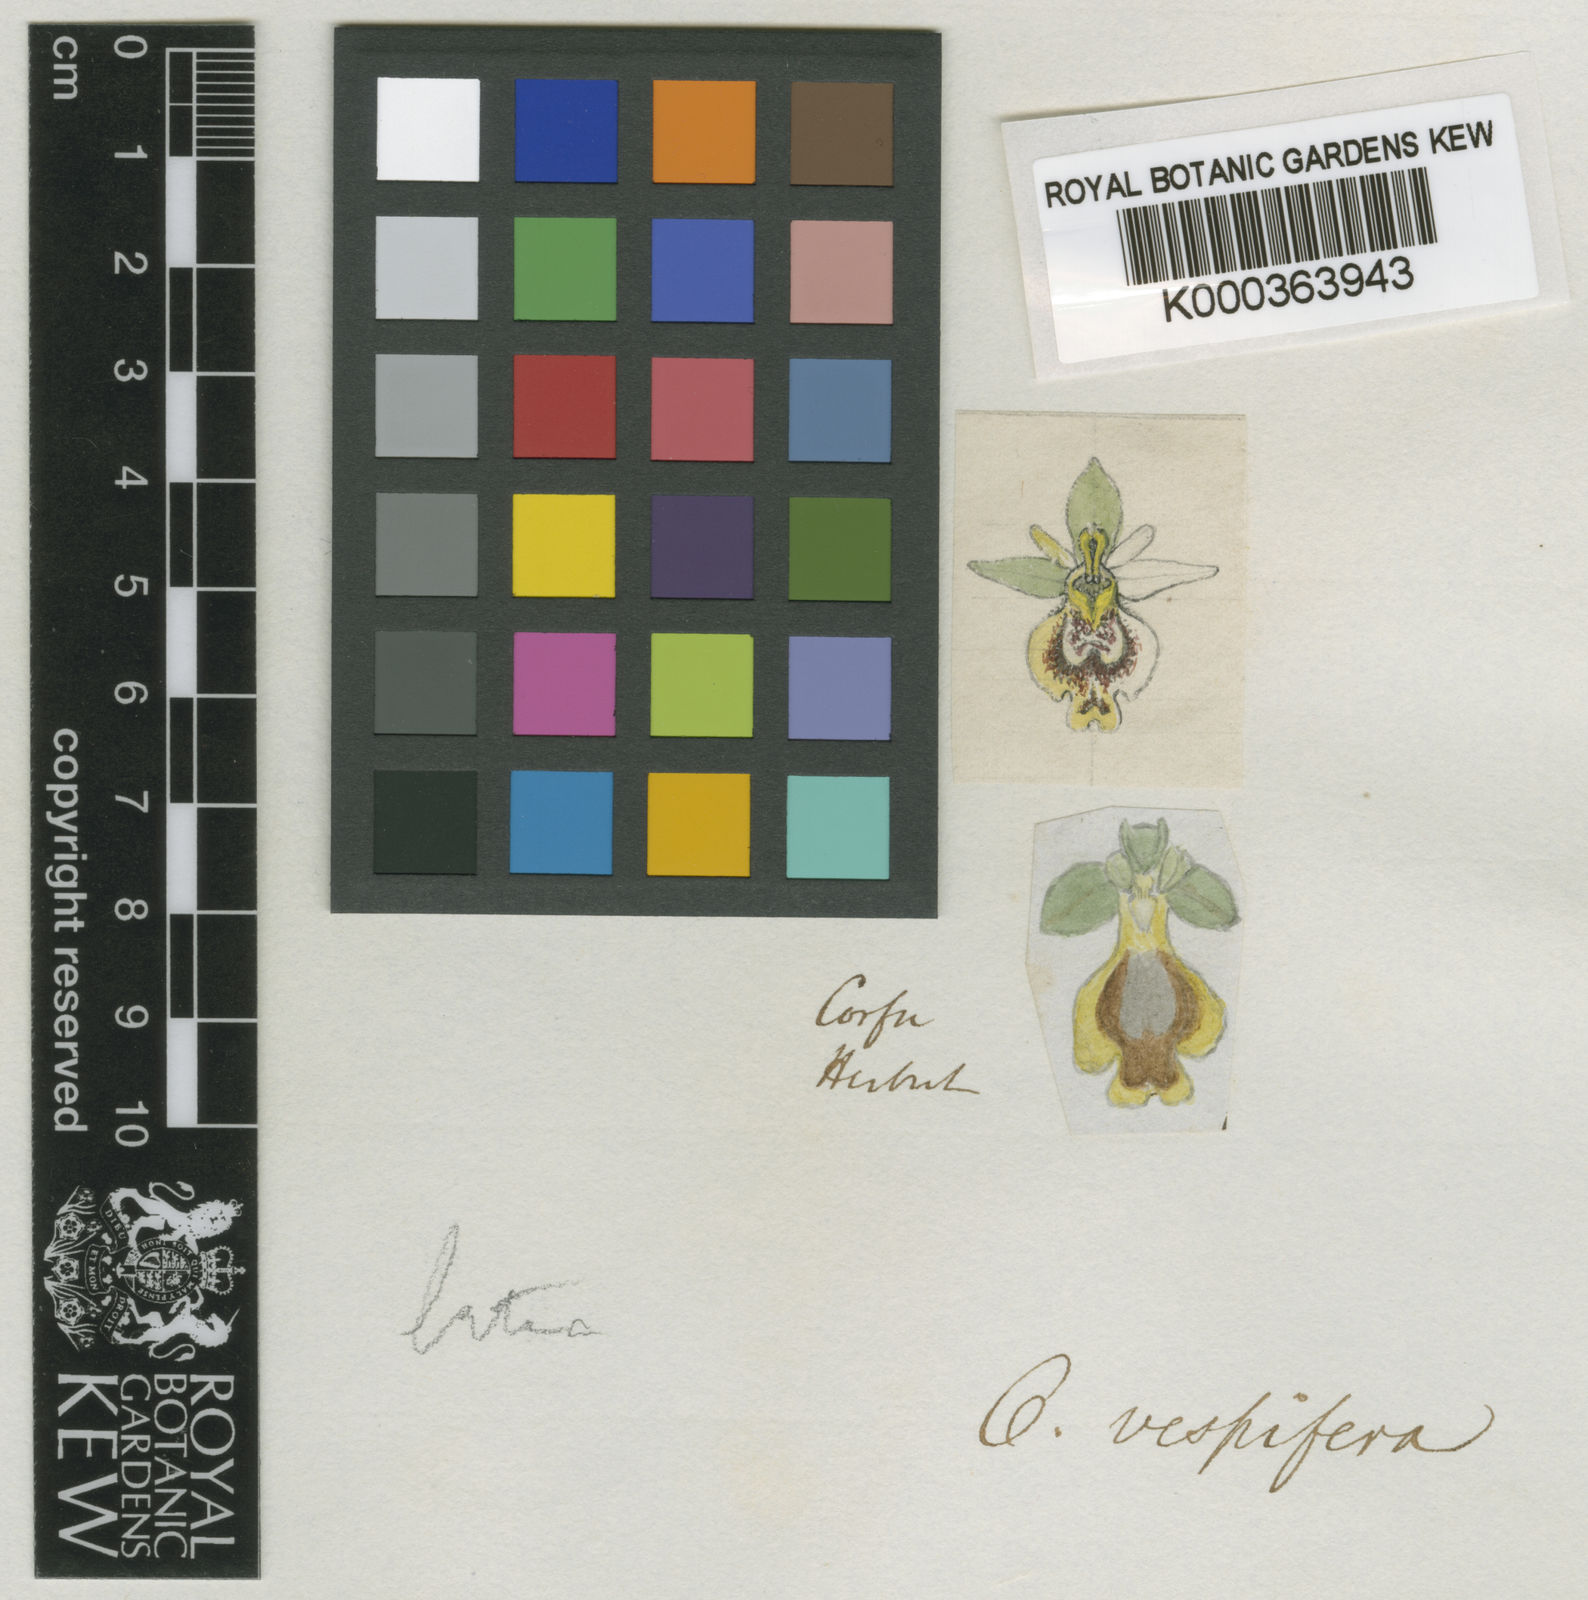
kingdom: Plantae
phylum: Tracheophyta
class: Liliopsida
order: Asparagales
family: Orchidaceae
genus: Ophrys
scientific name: Ophrys lutea
